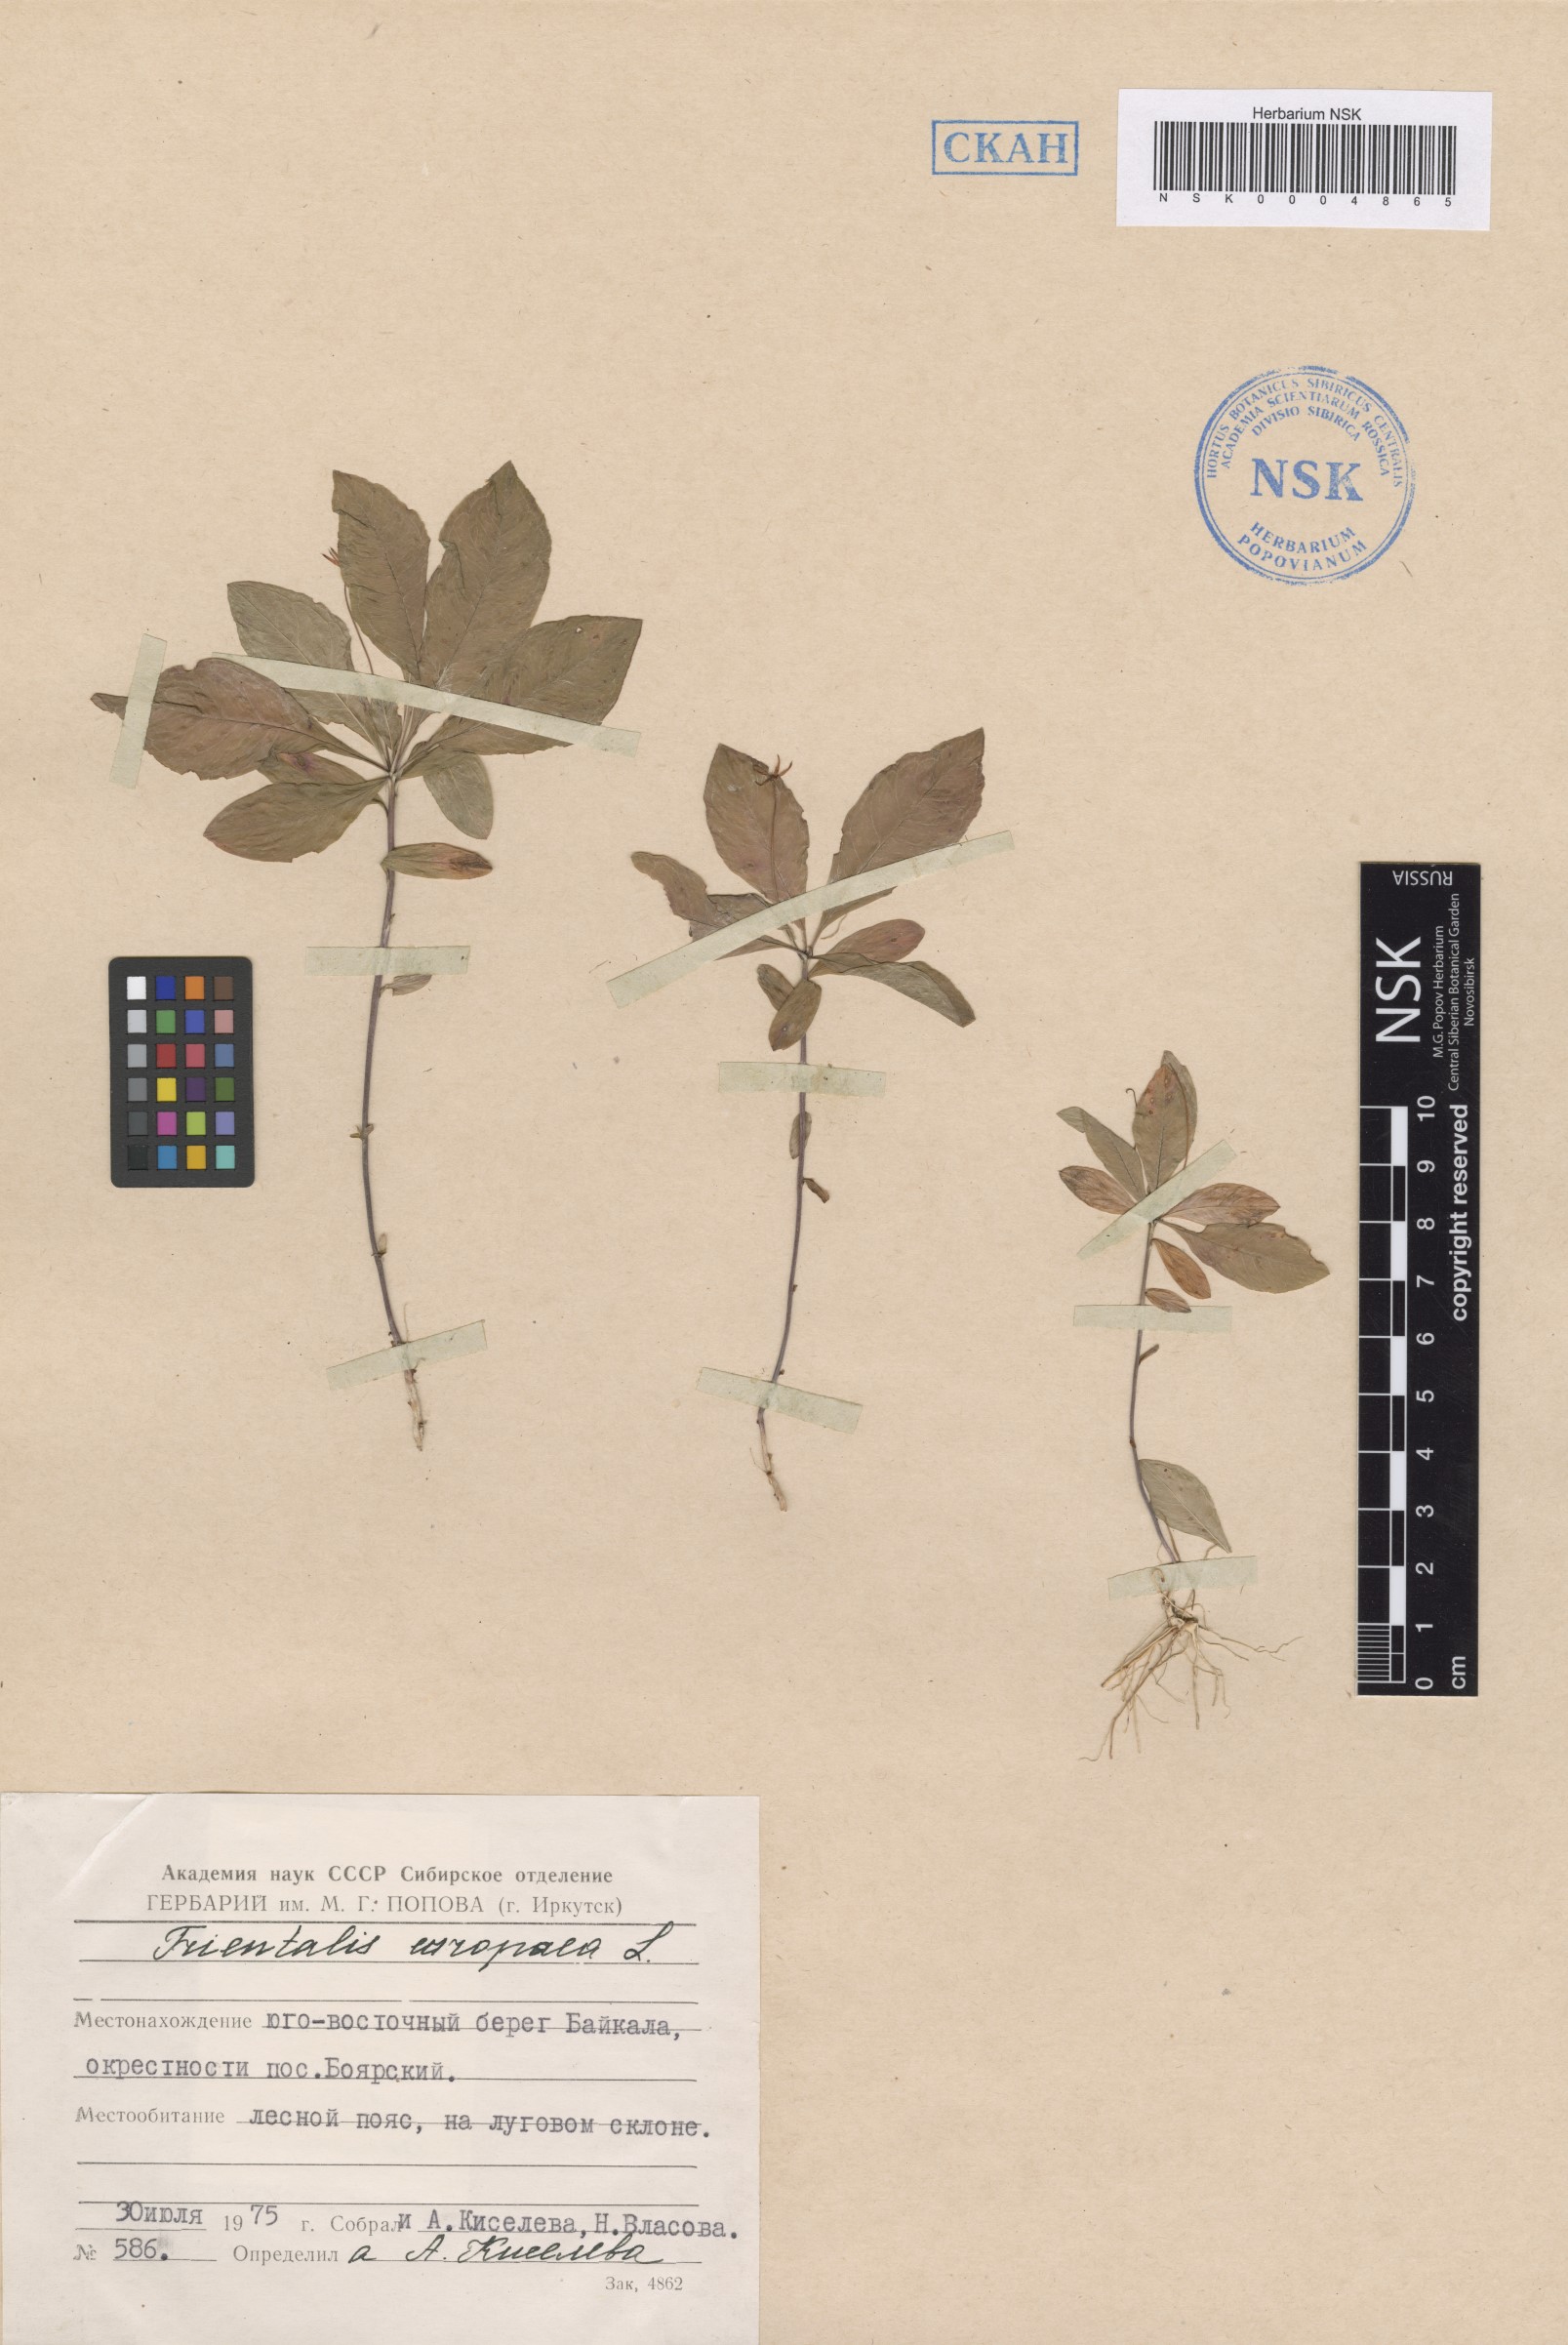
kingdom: Plantae
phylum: Tracheophyta
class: Magnoliopsida
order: Ericales
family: Primulaceae
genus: Lysimachia
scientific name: Lysimachia europaea
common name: Arctic starflower
